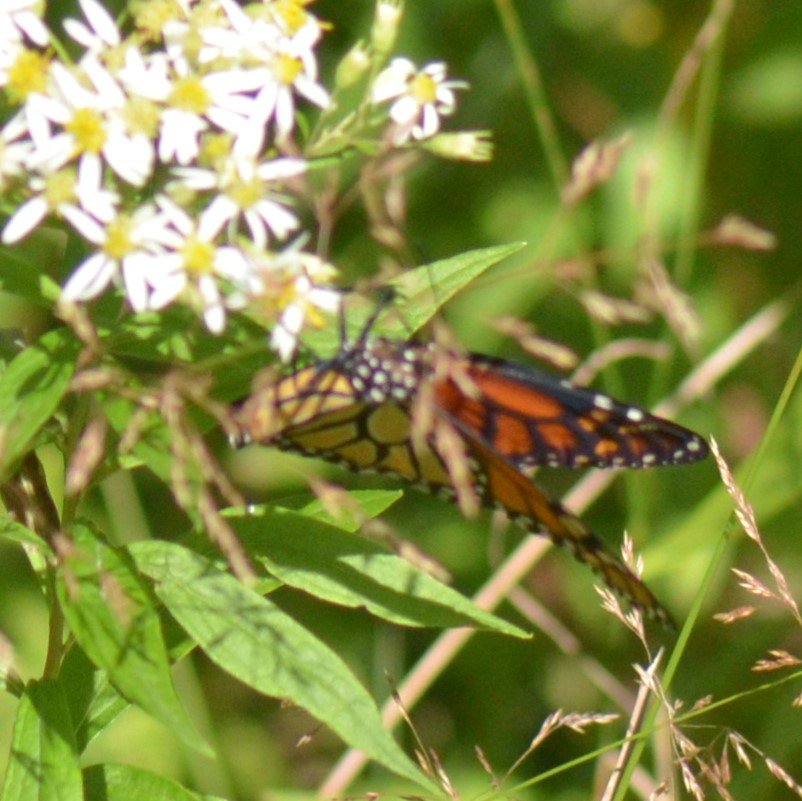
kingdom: Animalia
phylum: Arthropoda
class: Insecta
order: Lepidoptera
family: Nymphalidae
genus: Danaus
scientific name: Danaus plexippus
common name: Monarch
